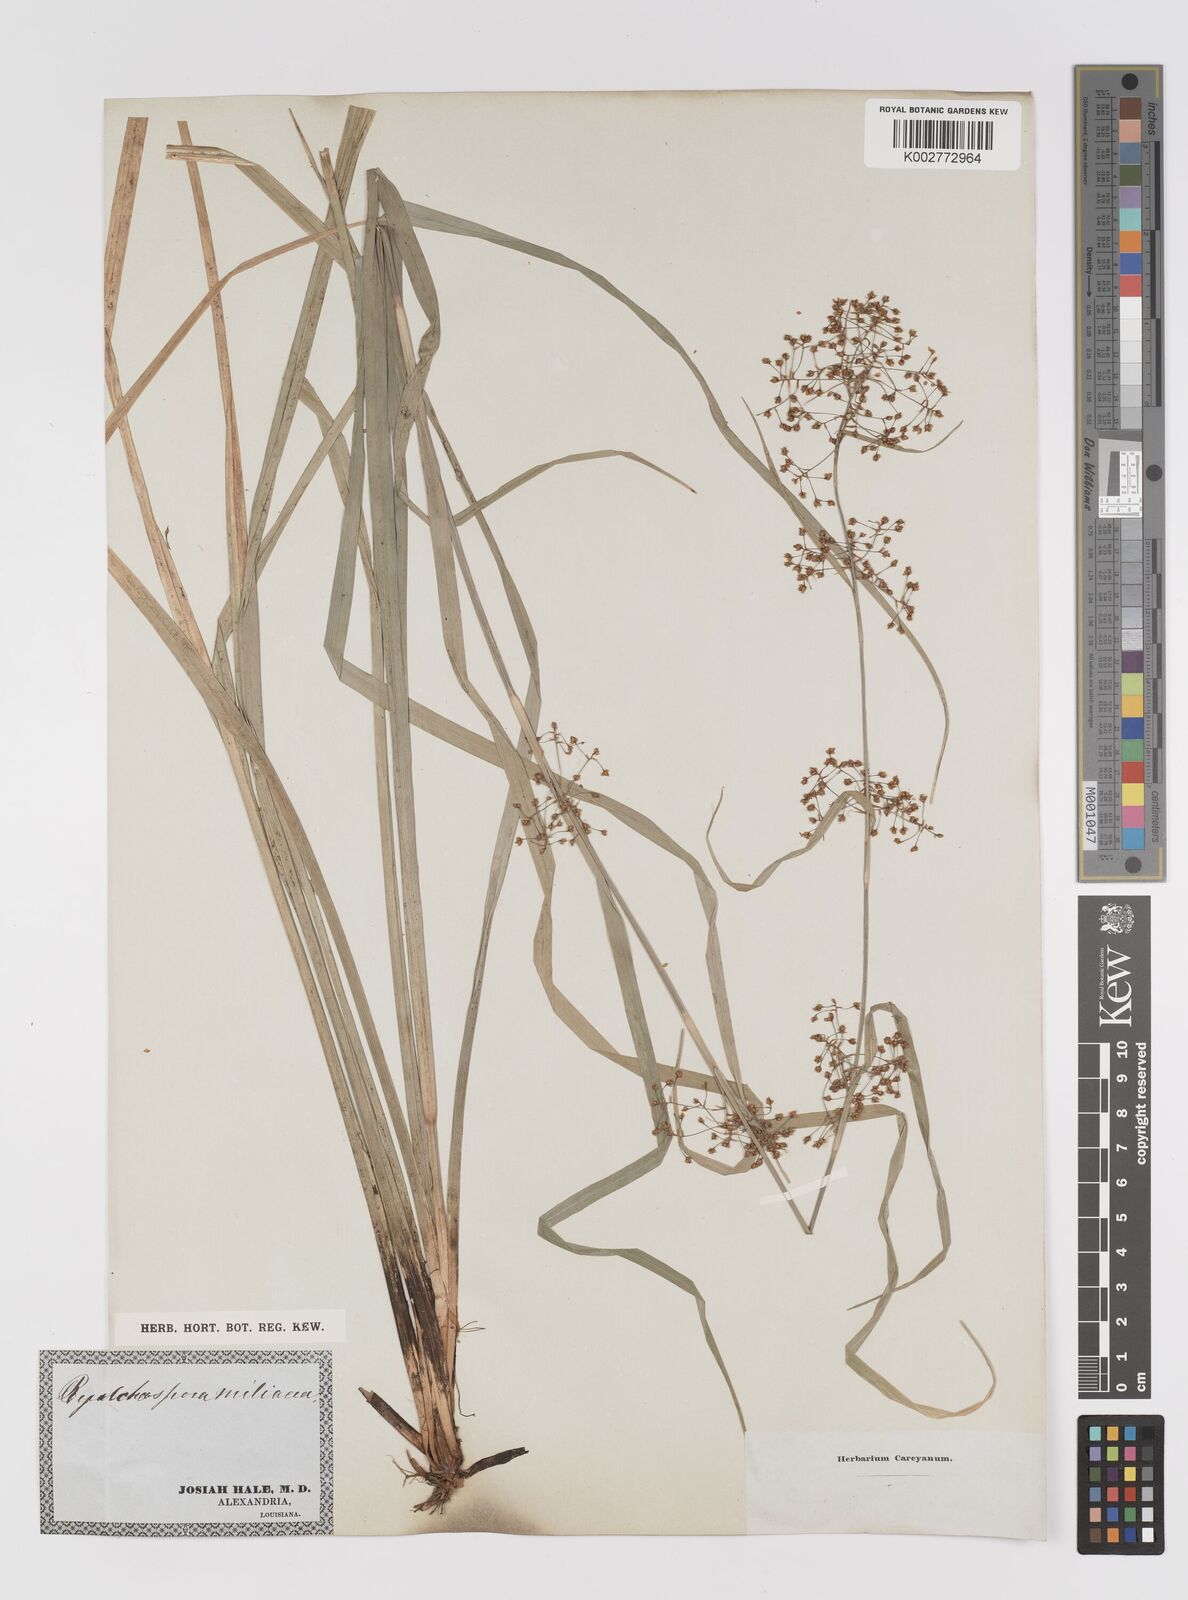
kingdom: Plantae
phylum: Tracheophyta
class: Liliopsida
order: Poales
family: Cyperaceae
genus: Rhynchospora
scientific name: Rhynchospora miliacea
